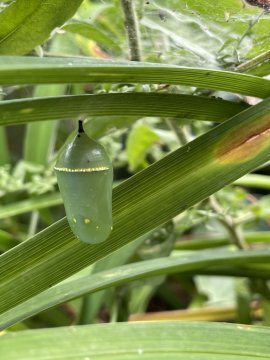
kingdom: Animalia
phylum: Arthropoda
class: Insecta
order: Lepidoptera
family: Nymphalidae
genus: Danaus
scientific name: Danaus plexippus
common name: Monarch
